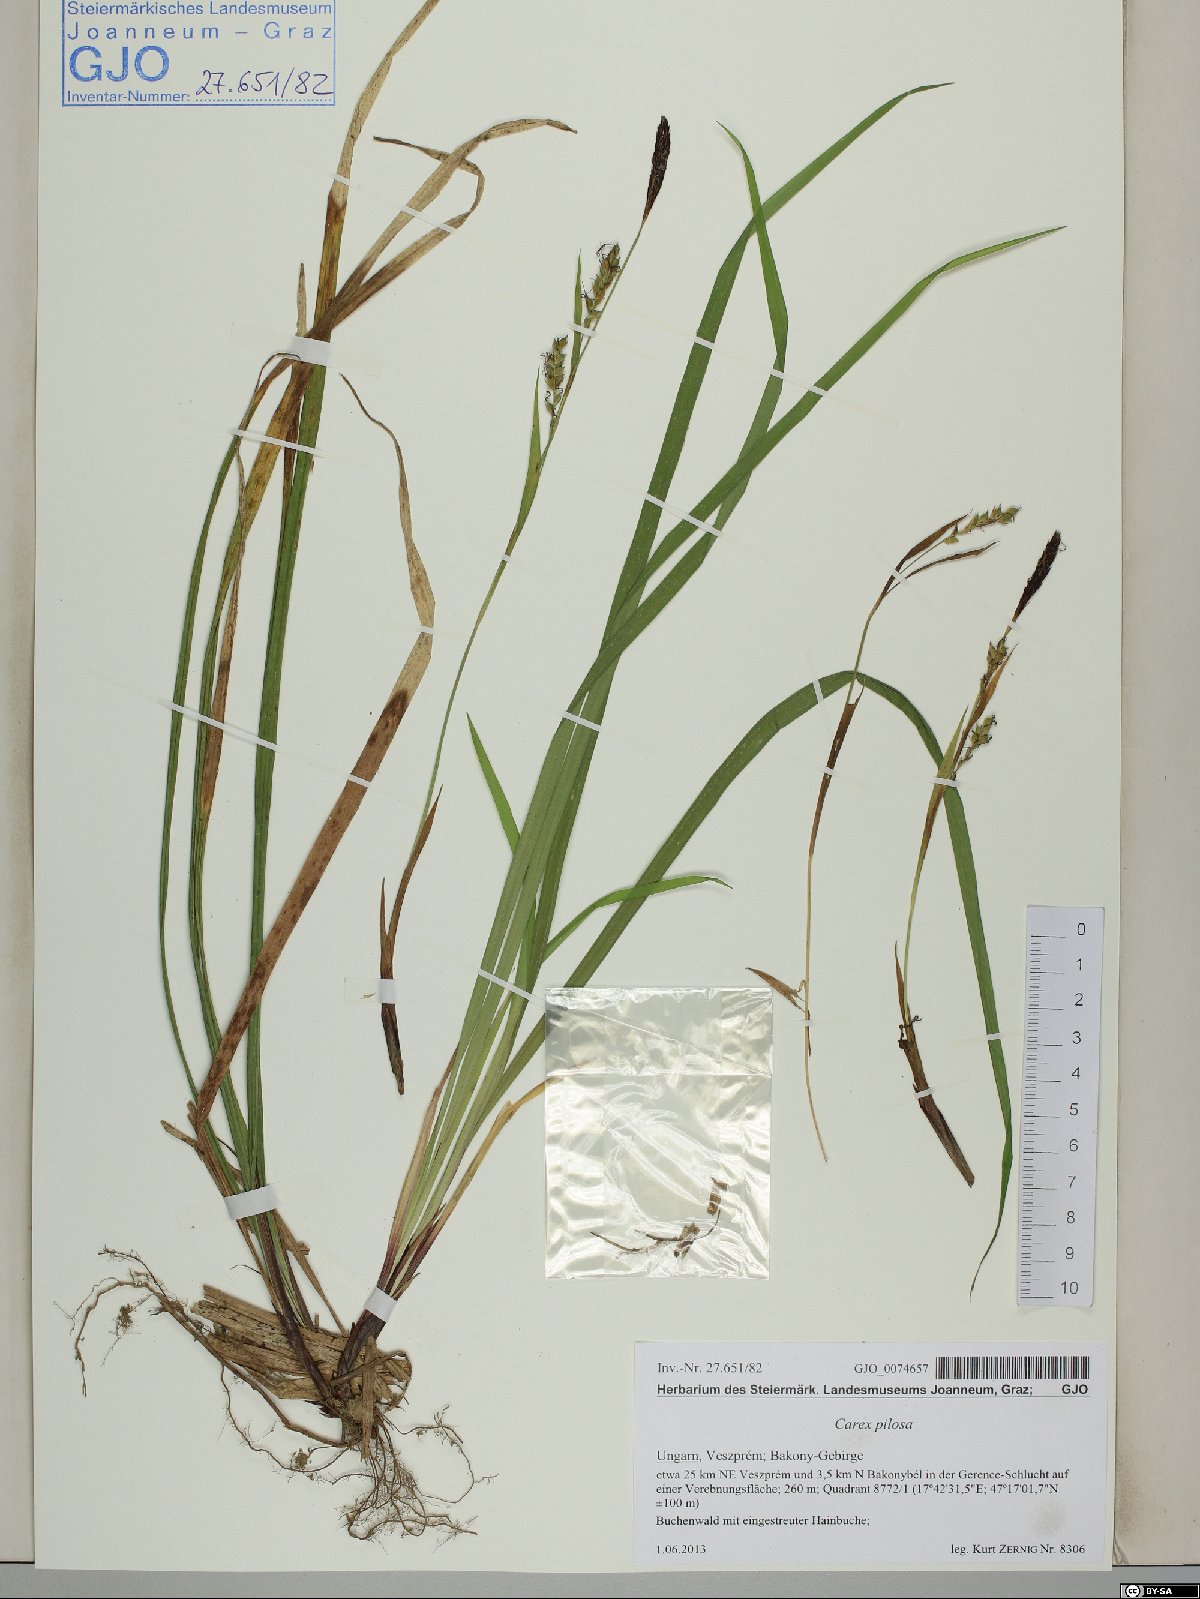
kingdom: Plantae
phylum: Tracheophyta
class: Liliopsida
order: Poales
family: Cyperaceae
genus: Carex
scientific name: Carex pilosa
